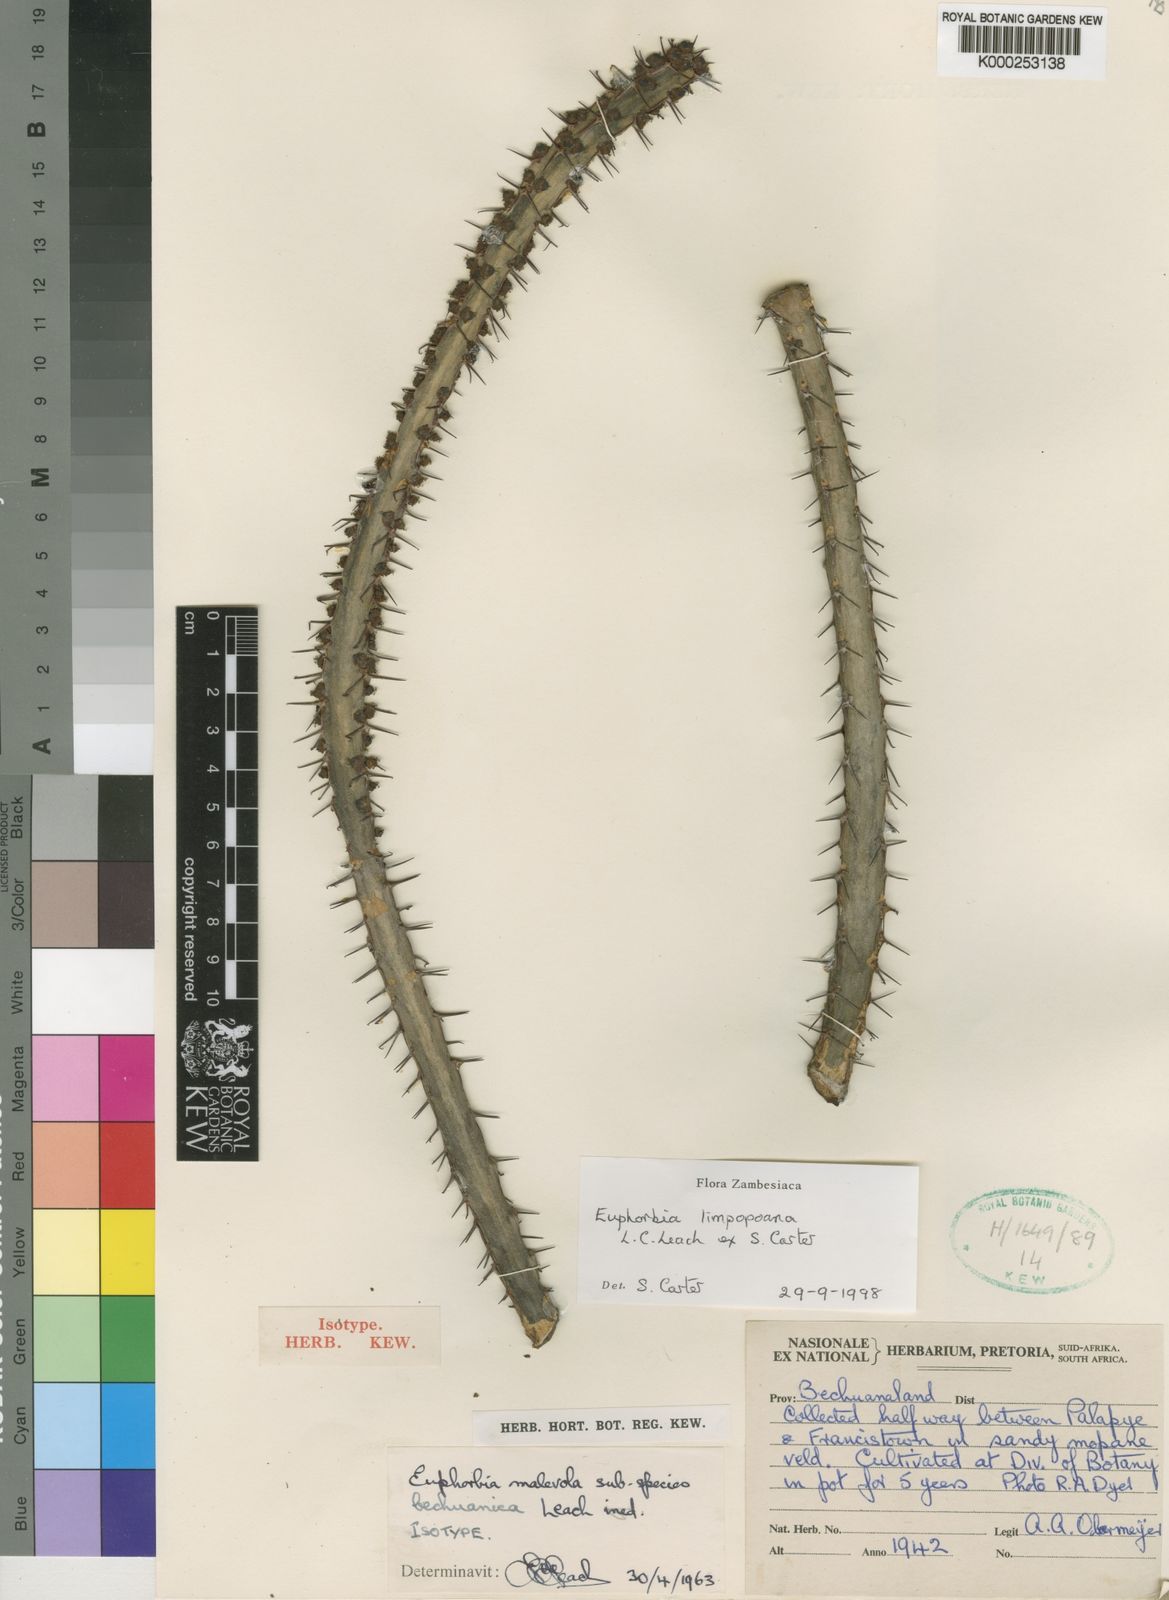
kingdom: Plantae
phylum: Tracheophyta
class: Magnoliopsida
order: Malpighiales
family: Euphorbiaceae
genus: Euphorbia
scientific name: Euphorbia schinzii
